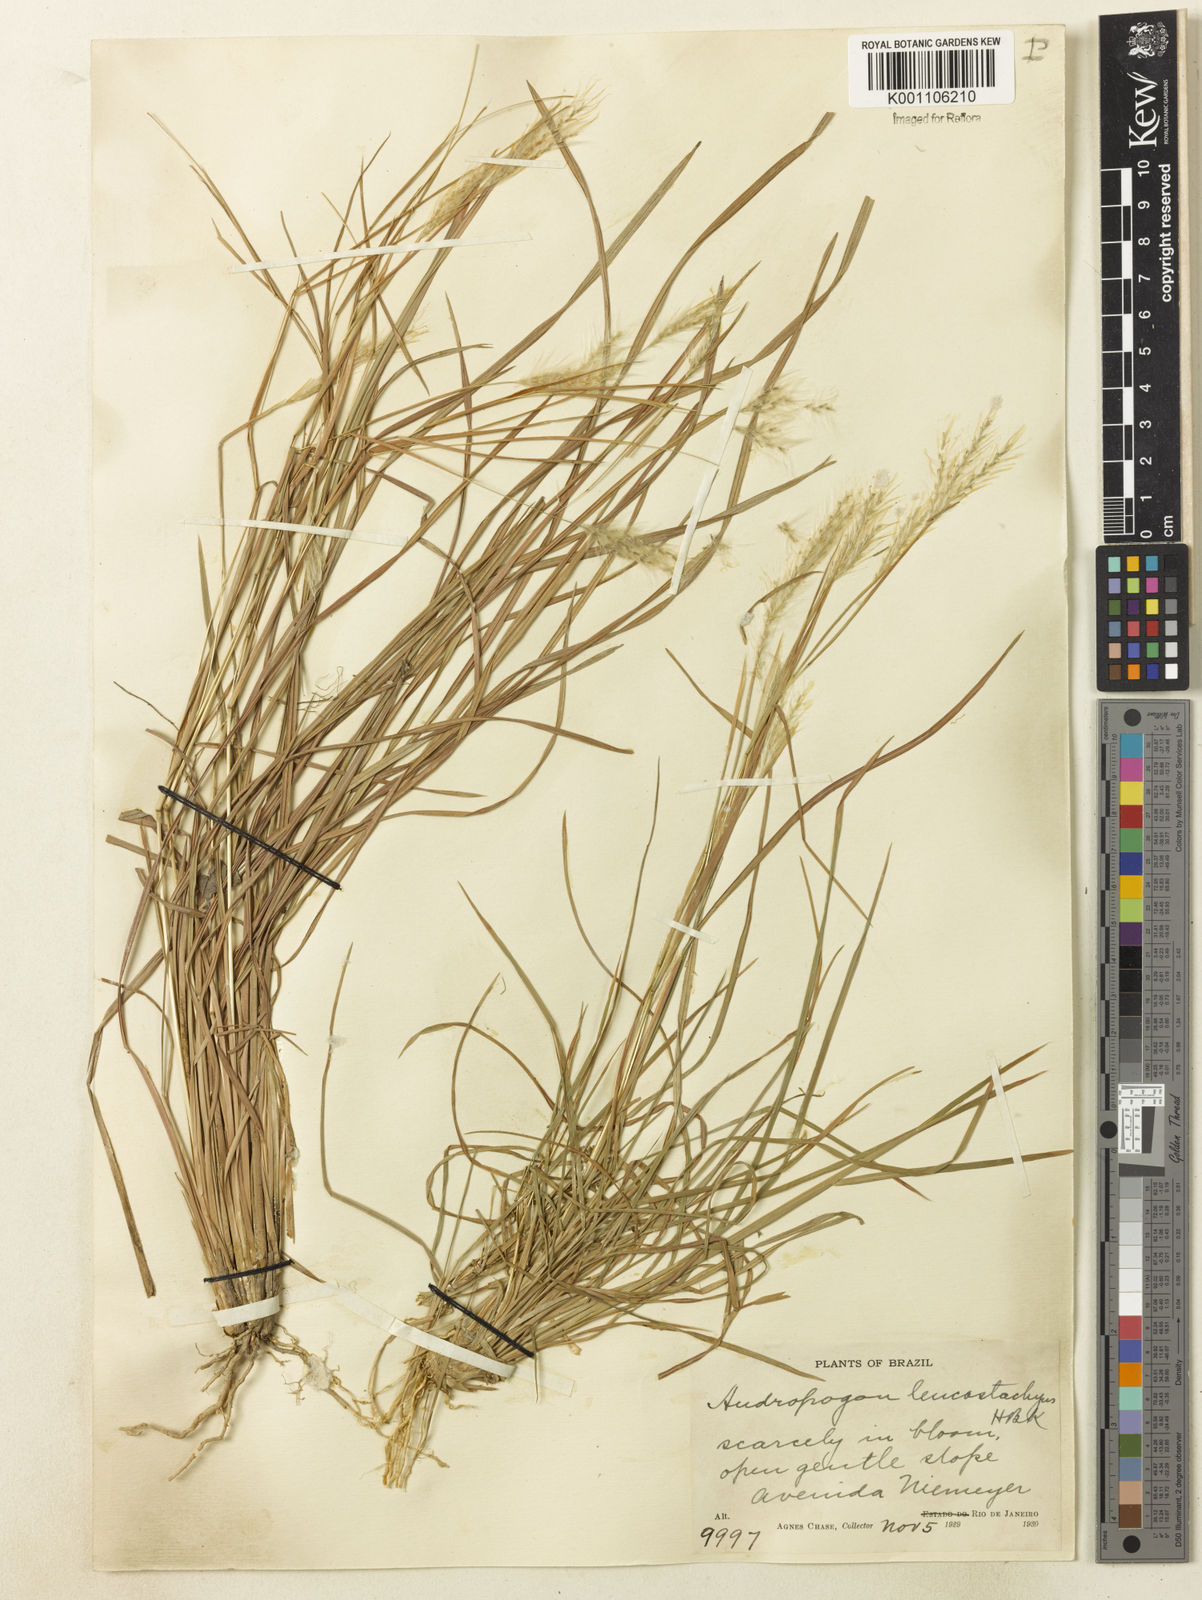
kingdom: Plantae
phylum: Tracheophyta
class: Liliopsida
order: Poales
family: Poaceae
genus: Andropogon
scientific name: Andropogon leucostachyus
